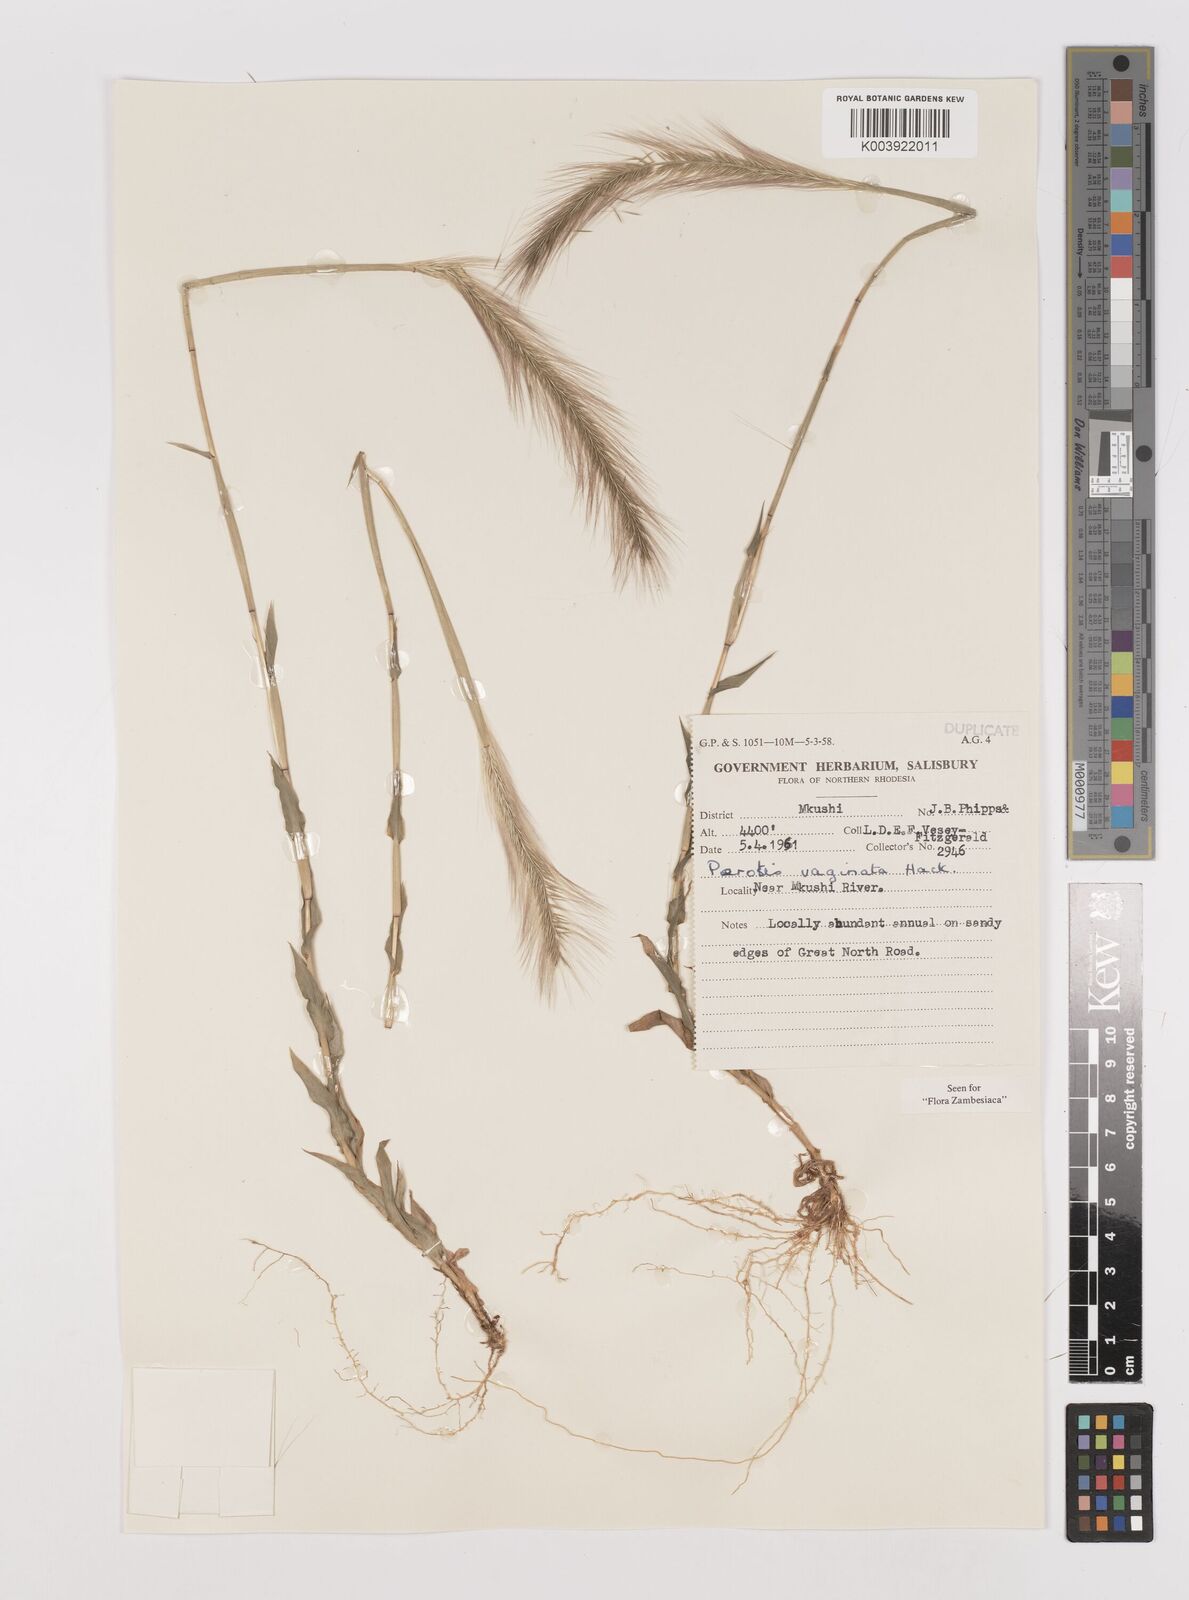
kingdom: Plantae
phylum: Tracheophyta
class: Liliopsida
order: Poales
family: Poaceae
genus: Perotis
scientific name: Perotis vaginata
